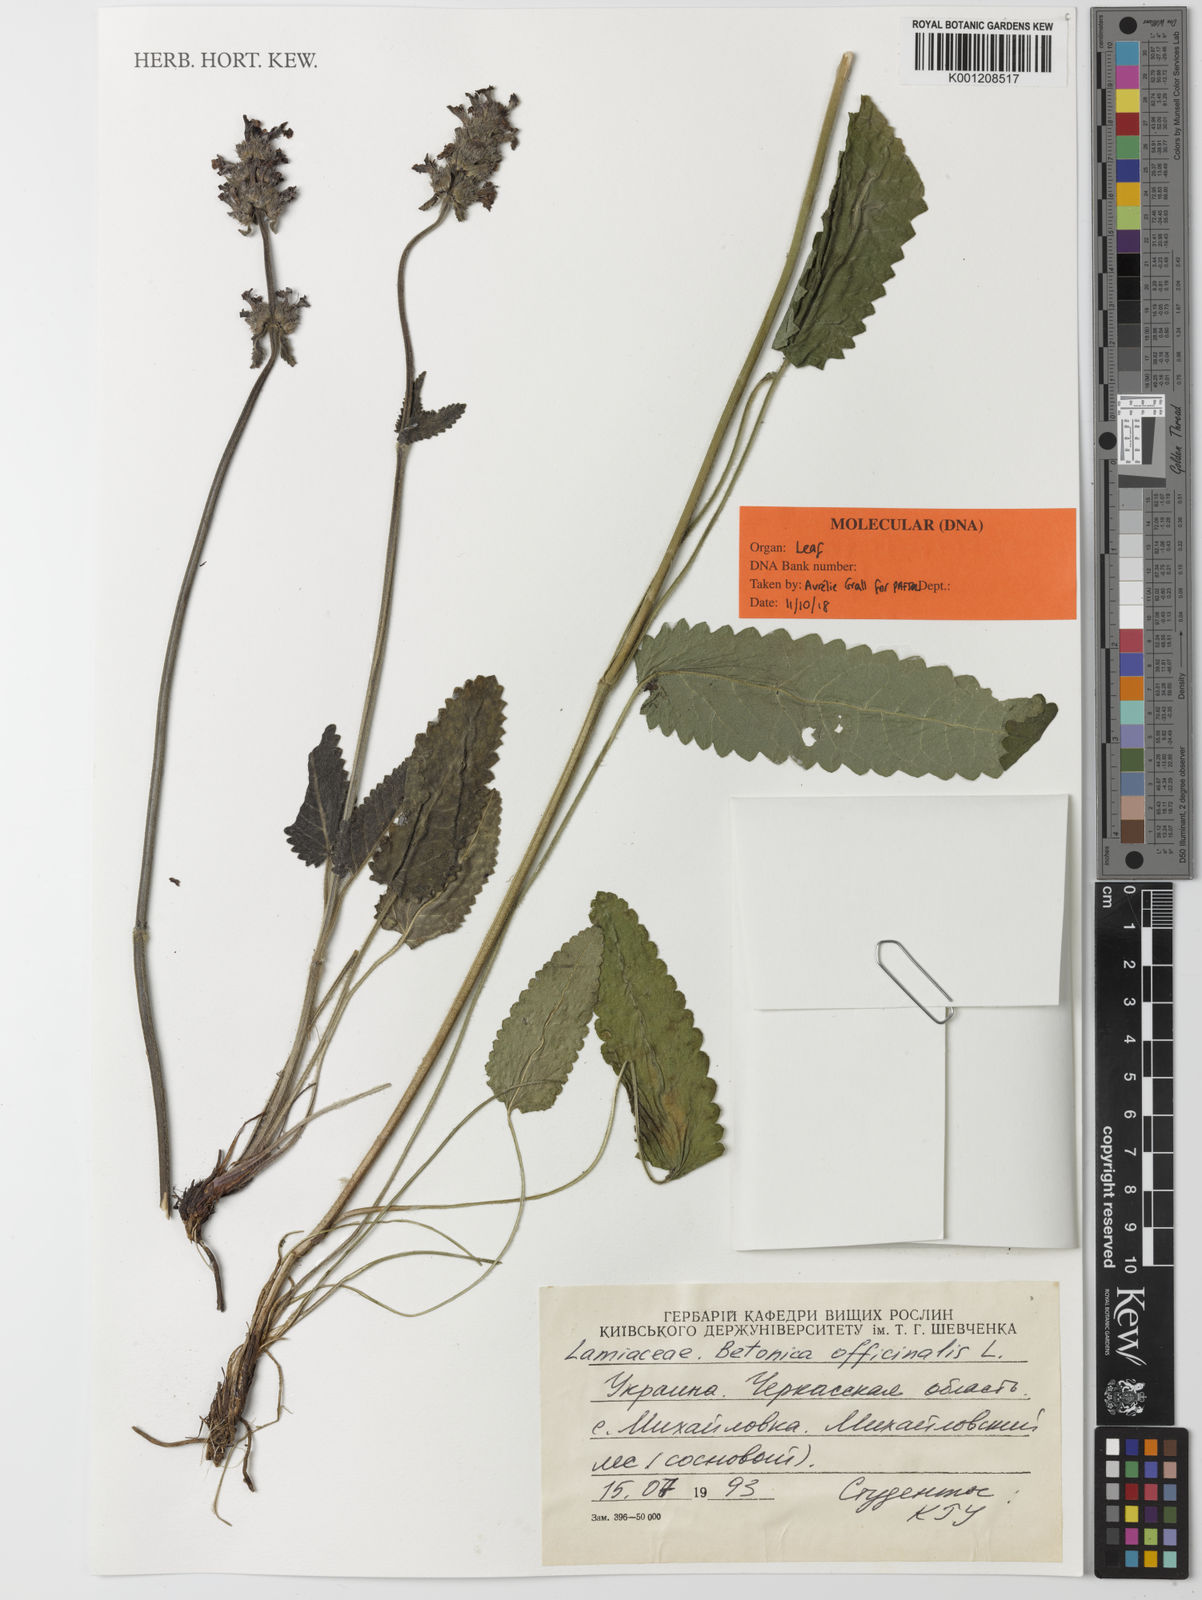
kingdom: Plantae
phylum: Tracheophyta
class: Magnoliopsida
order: Lamiales
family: Lamiaceae
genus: Betonica
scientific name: Betonica officinalis
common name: Bishop's-wort
